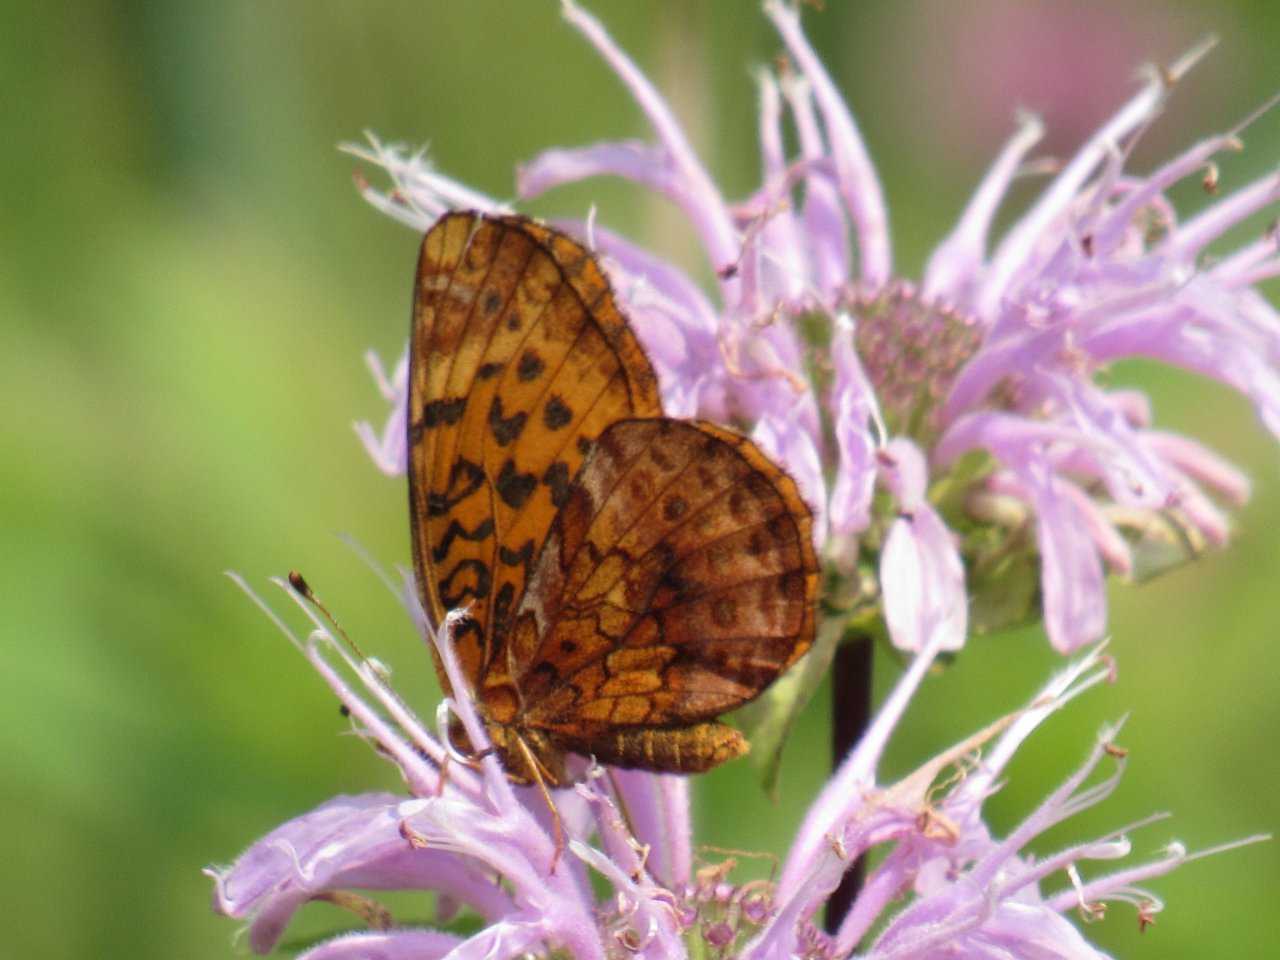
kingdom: Animalia
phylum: Arthropoda
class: Insecta
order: Lepidoptera
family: Nymphalidae
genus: Clossiana
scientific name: Clossiana toddi
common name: Meadow Fritillary
